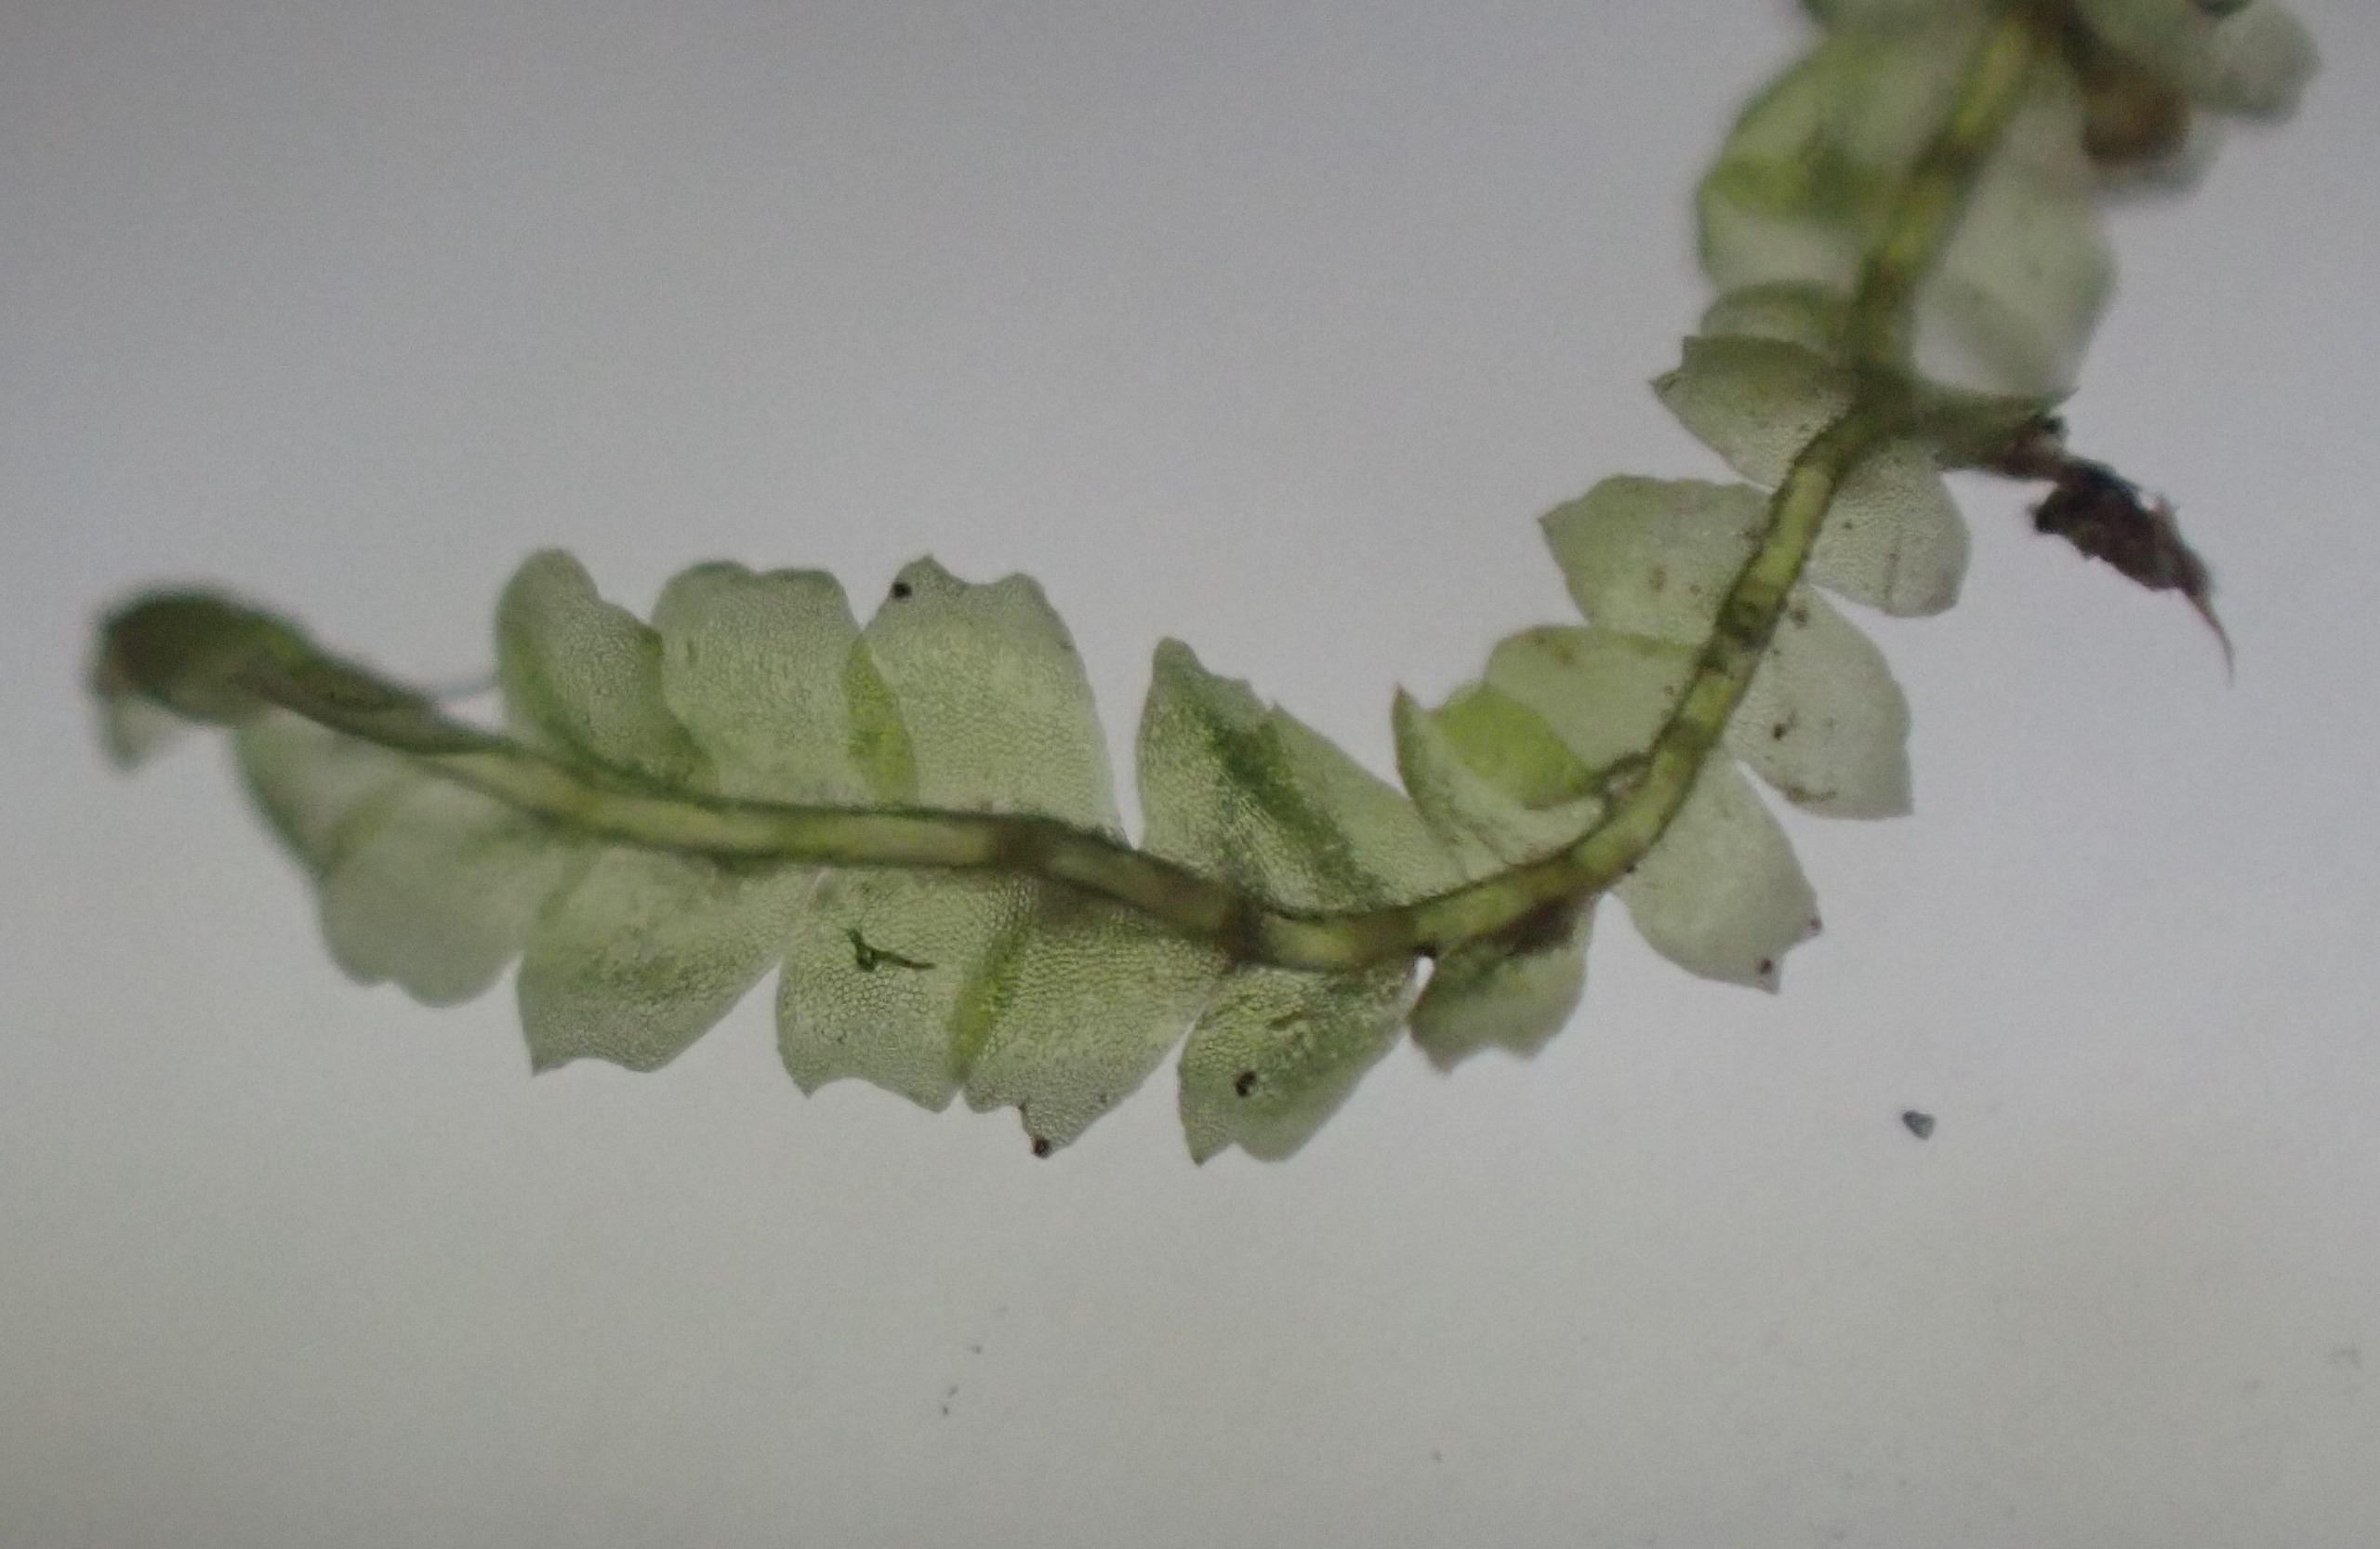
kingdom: Plantae
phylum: Marchantiophyta
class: Jungermanniopsida
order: Jungermanniales
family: Lophocoleaceae
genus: Lophocolea
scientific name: Lophocolea heterophylla
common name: Forskelligbladet kamsvøb
